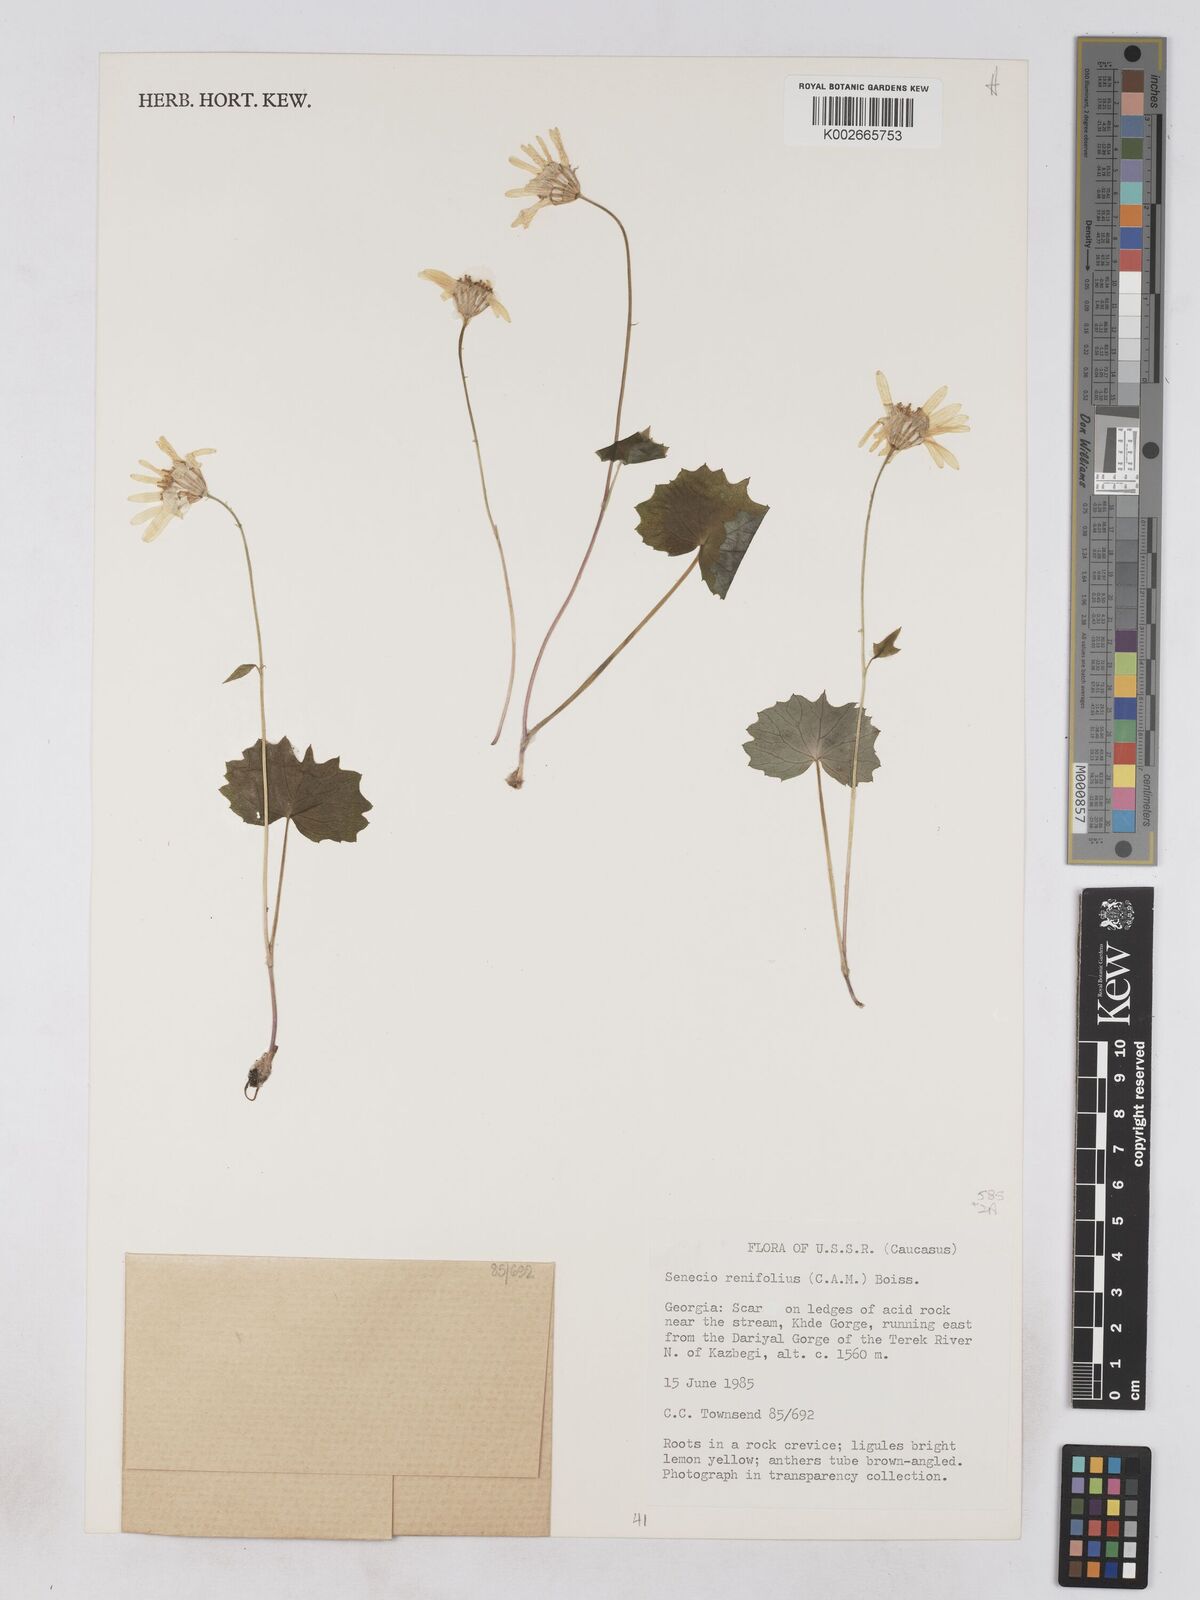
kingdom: Plantae
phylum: Tracheophyta
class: Magnoliopsida
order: Asterales
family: Asteraceae
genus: Dolichorrhiza
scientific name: Dolichorrhiza renifolia
